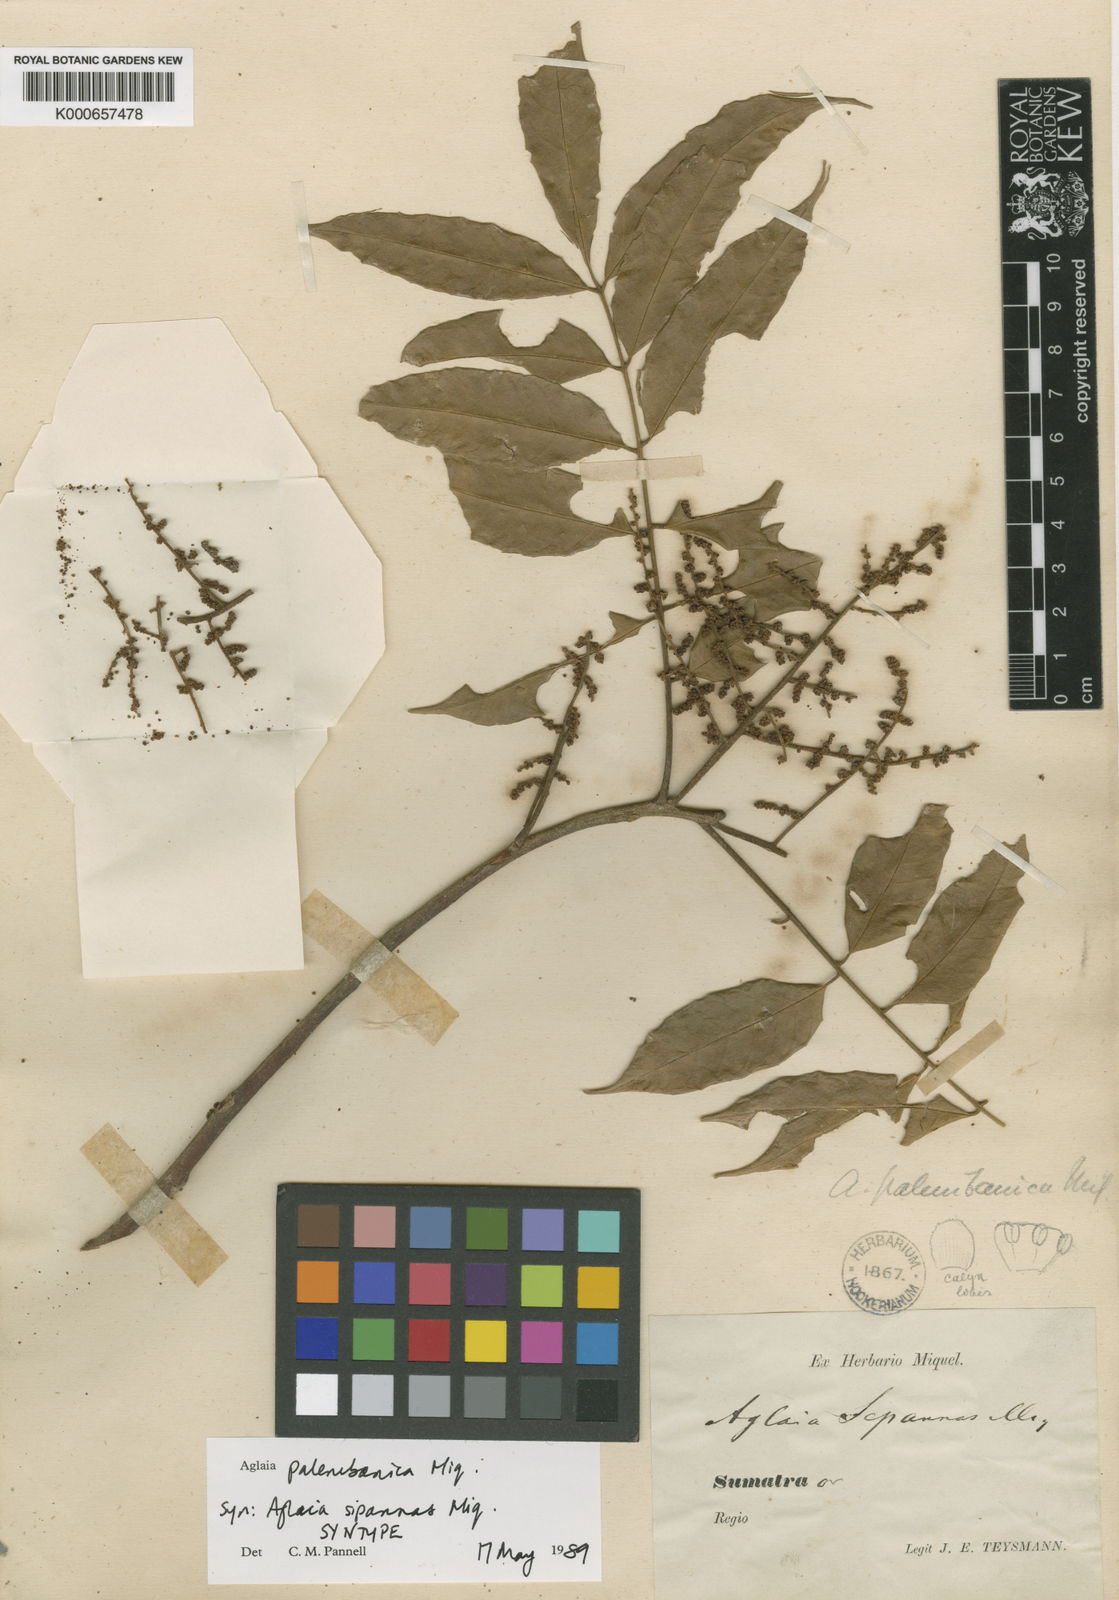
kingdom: Plantae
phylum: Tracheophyta
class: Magnoliopsida
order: Sapindales
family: Meliaceae
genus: Aglaia
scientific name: Aglaia palembanica
